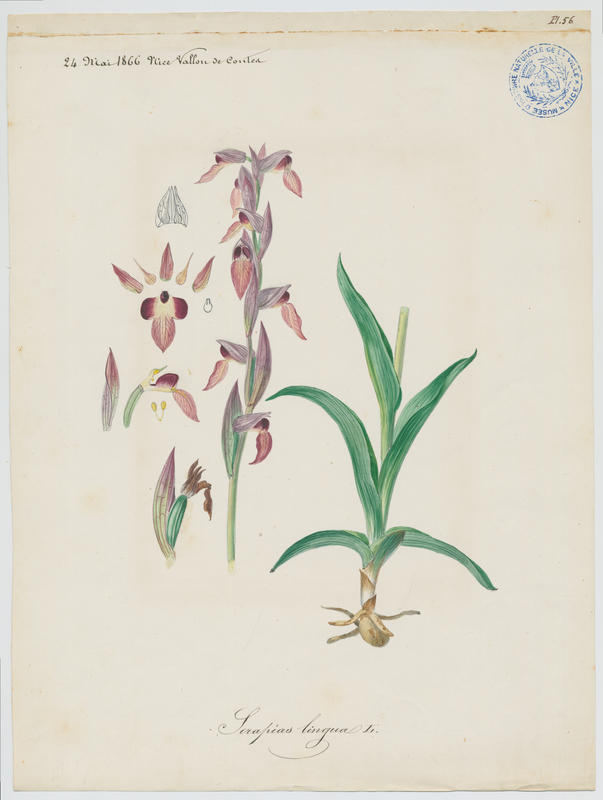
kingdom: Plantae
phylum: Tracheophyta
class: Liliopsida
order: Asparagales
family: Orchidaceae
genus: Serapias
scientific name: Serapias lingua
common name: Tongue-orchid
